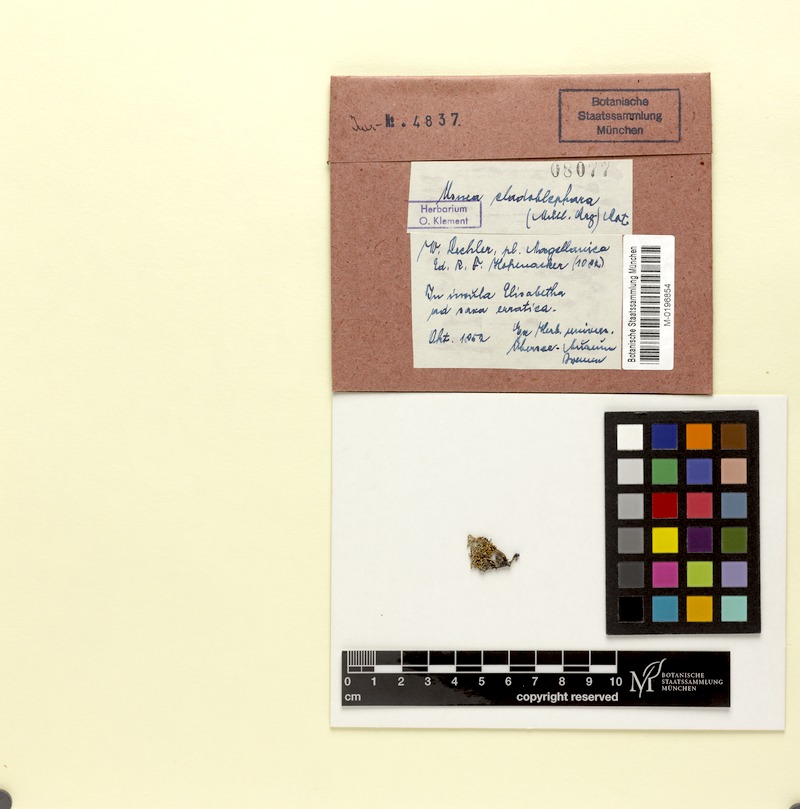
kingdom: Fungi
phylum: Ascomycota
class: Lecanoromycetes
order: Lecanorales
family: Parmeliaceae
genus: Usnea
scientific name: Usnea
